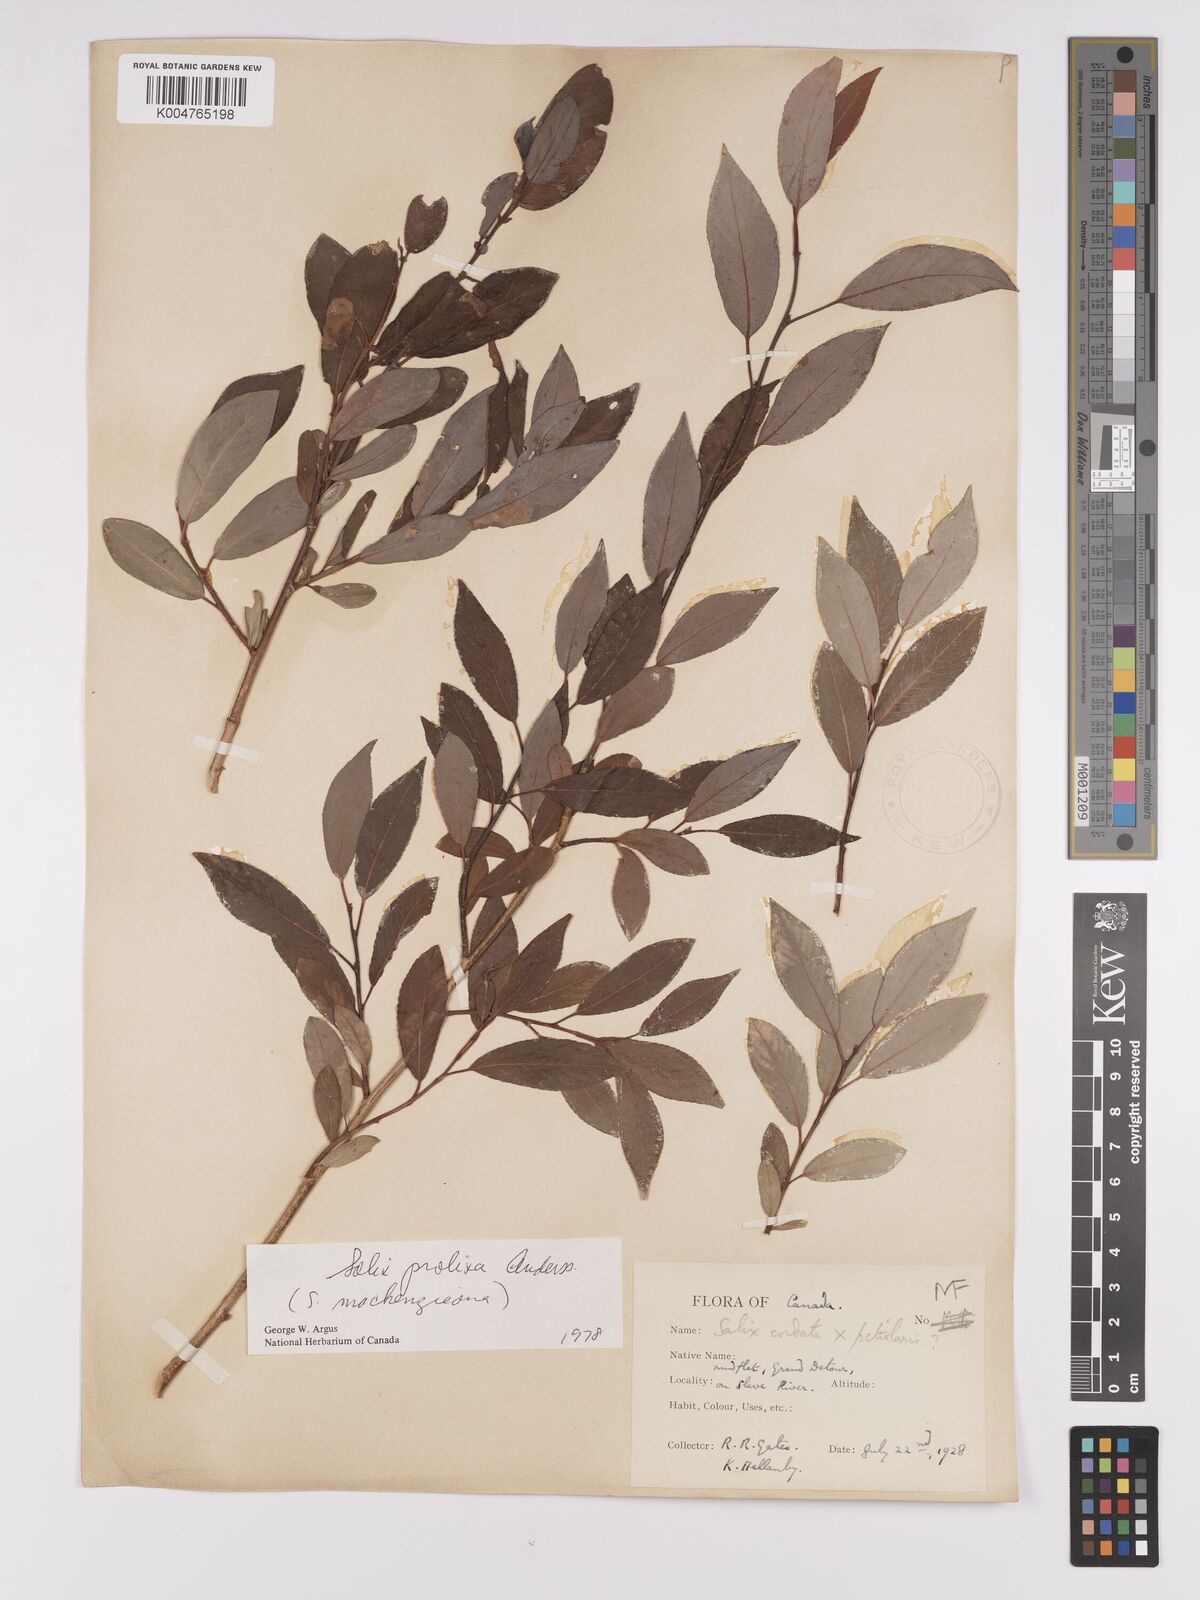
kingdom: Plantae
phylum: Tracheophyta
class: Magnoliopsida
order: Malpighiales
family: Salicaceae
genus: Salix
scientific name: Salix prolixa
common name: Mackenzie's willow
